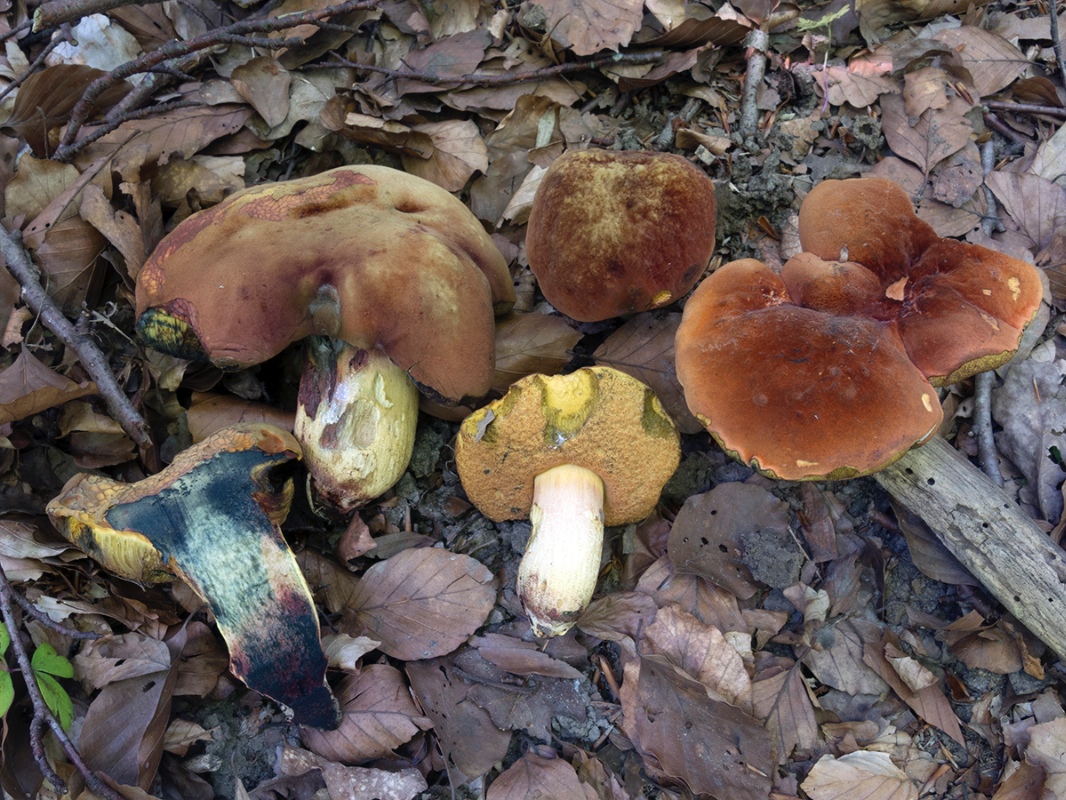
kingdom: Fungi
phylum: Basidiomycota
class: Agaricomycetes
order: Boletales
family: Boletaceae
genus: Suillellus
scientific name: Suillellus queletii
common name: glatstokket indigorørhat
